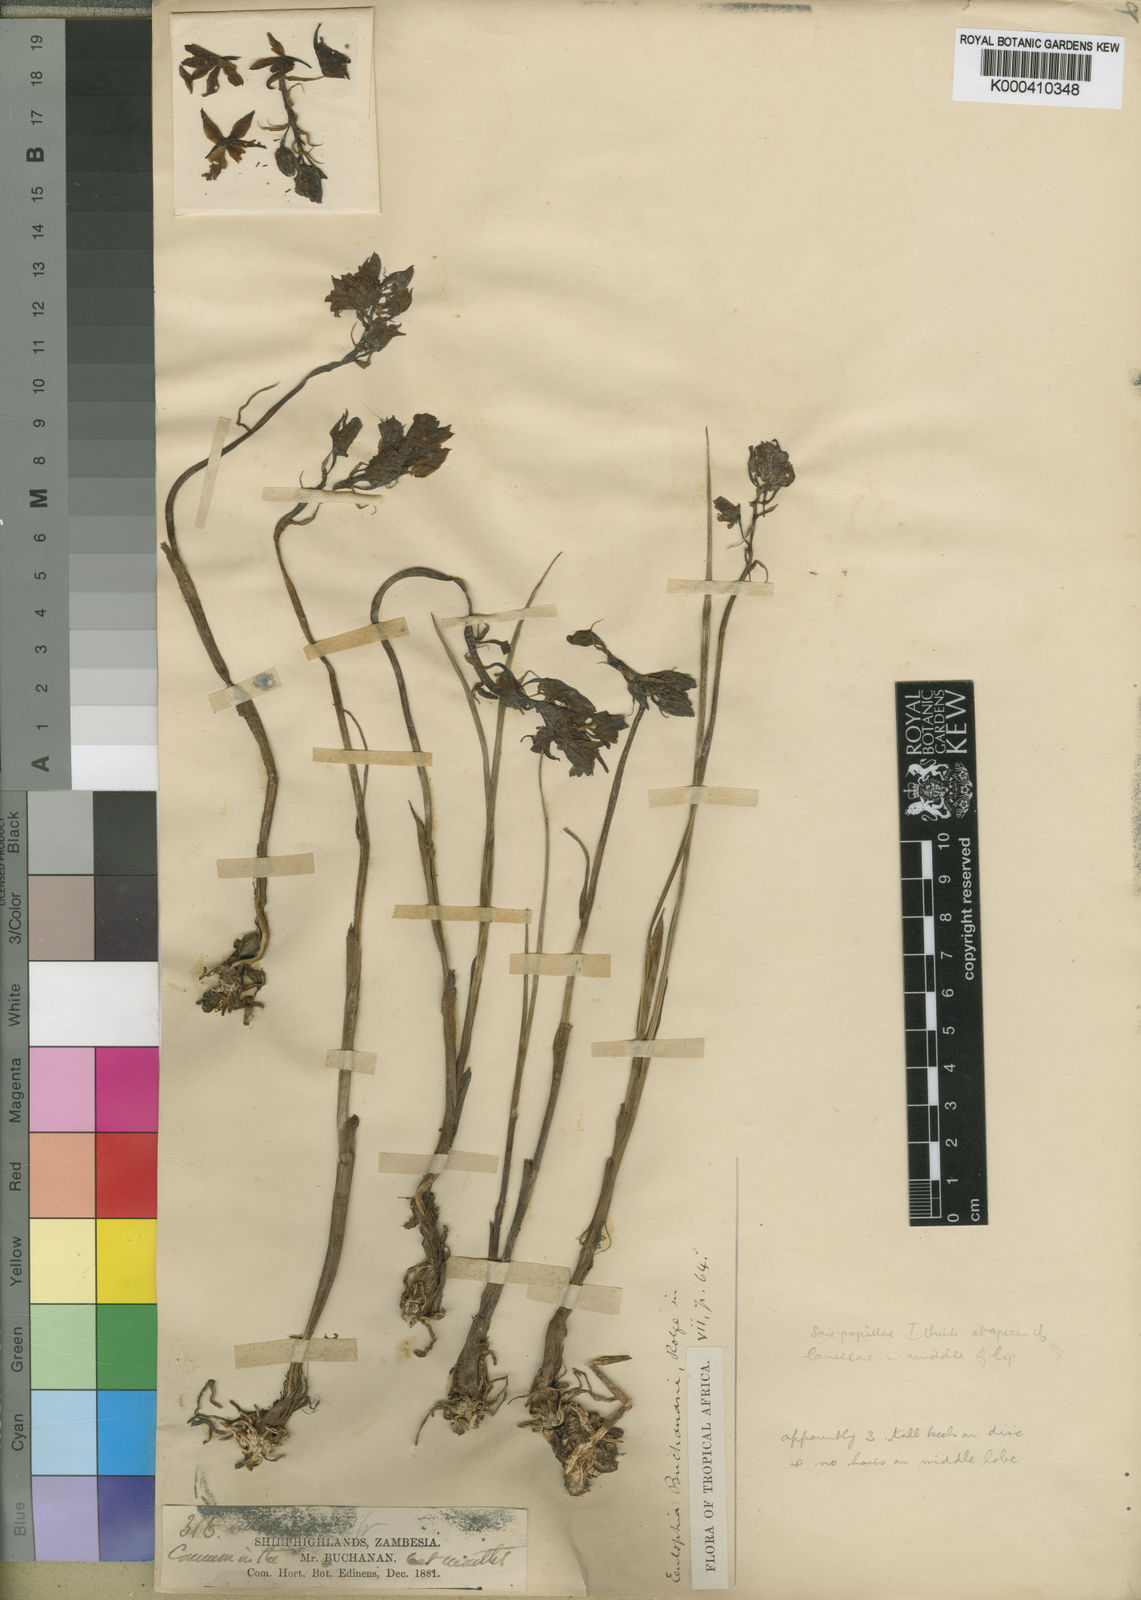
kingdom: Plantae
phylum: Tracheophyta
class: Liliopsida
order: Asparagales
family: Orchidaceae
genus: Eulophia
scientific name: Eulophia hians
